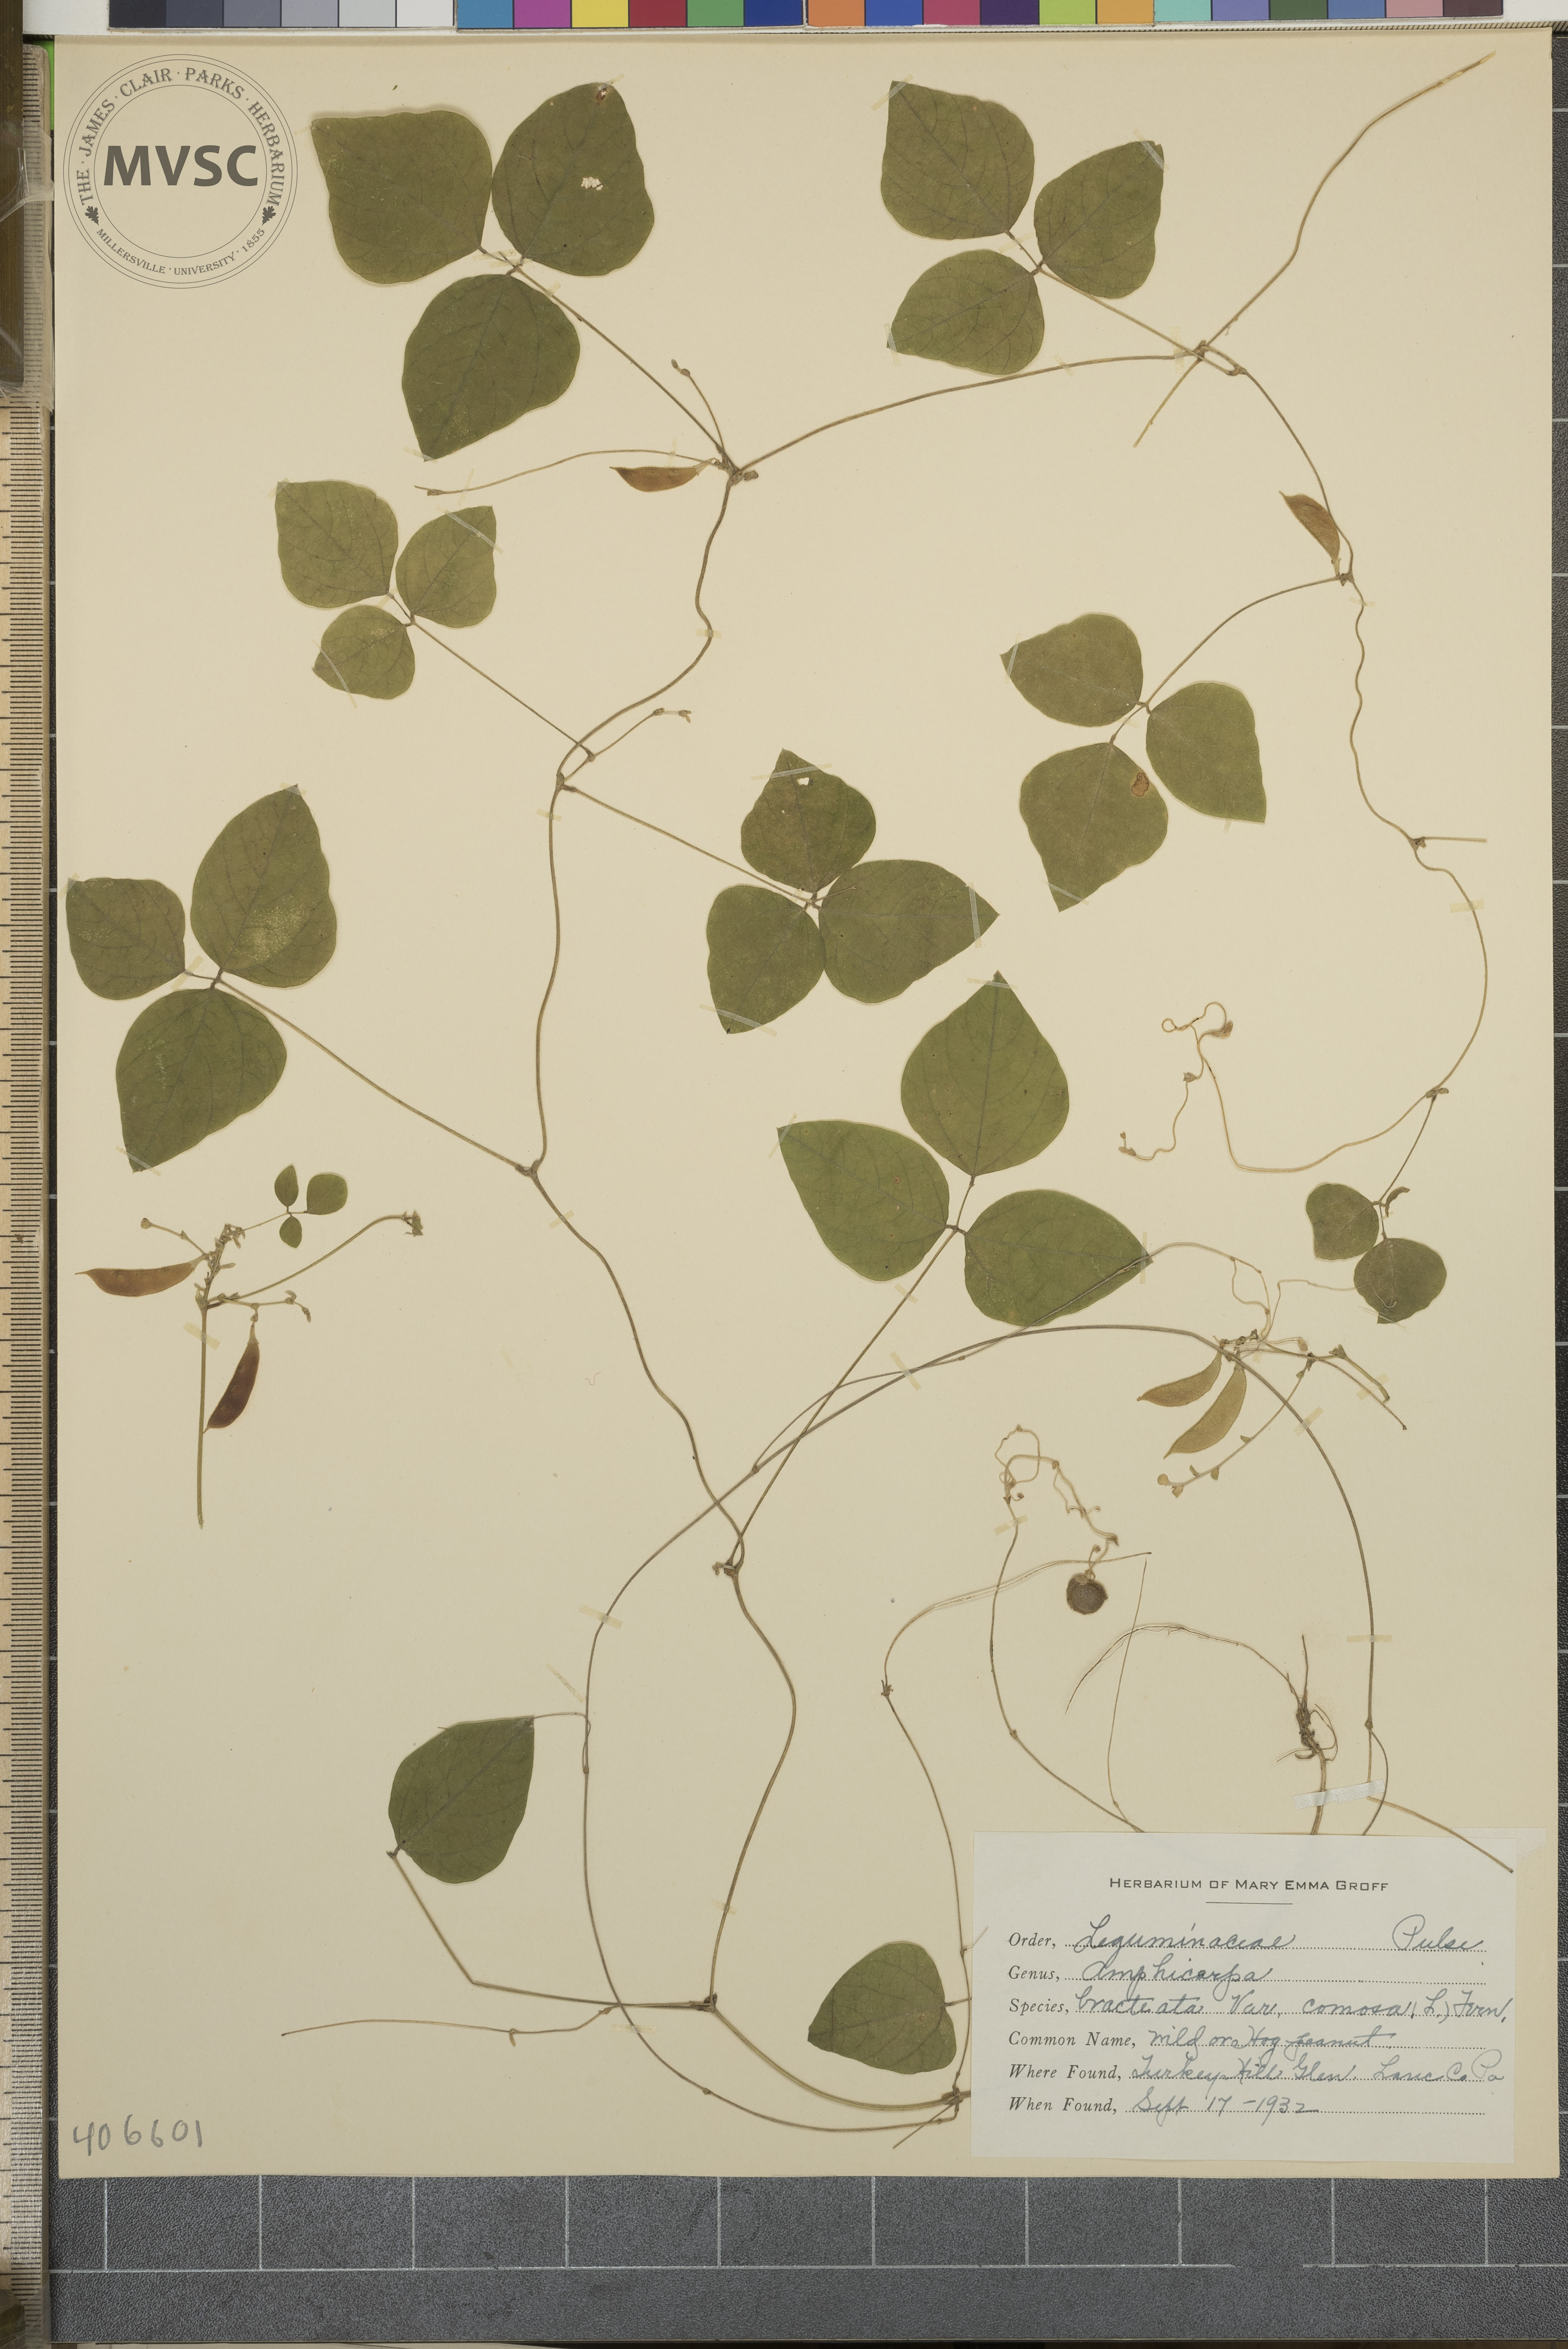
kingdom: Plantae
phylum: Tracheophyta
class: Magnoliopsida
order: Fabales
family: Fabaceae
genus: Amphicarpaea
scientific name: Amphicarpaea bracteata
